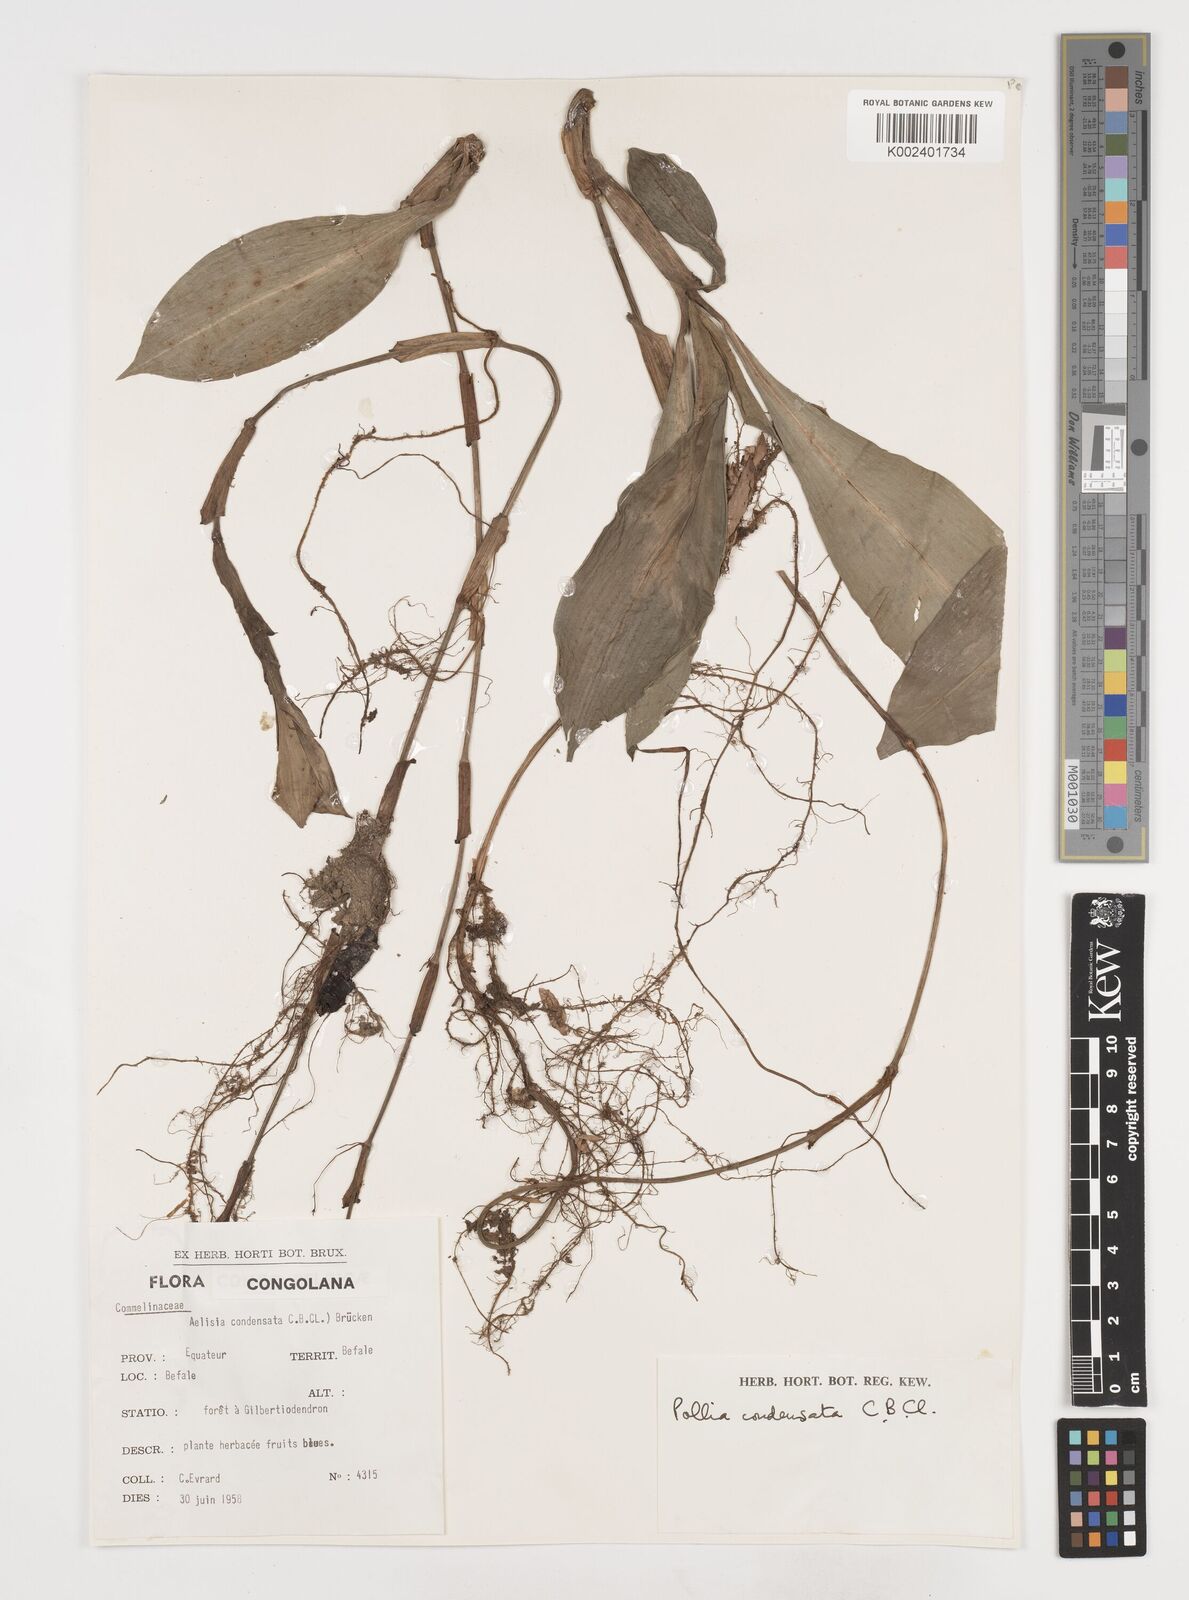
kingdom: Plantae
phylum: Tracheophyta
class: Liliopsida
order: Commelinales
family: Commelinaceae
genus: Pollia
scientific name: Pollia condensata
